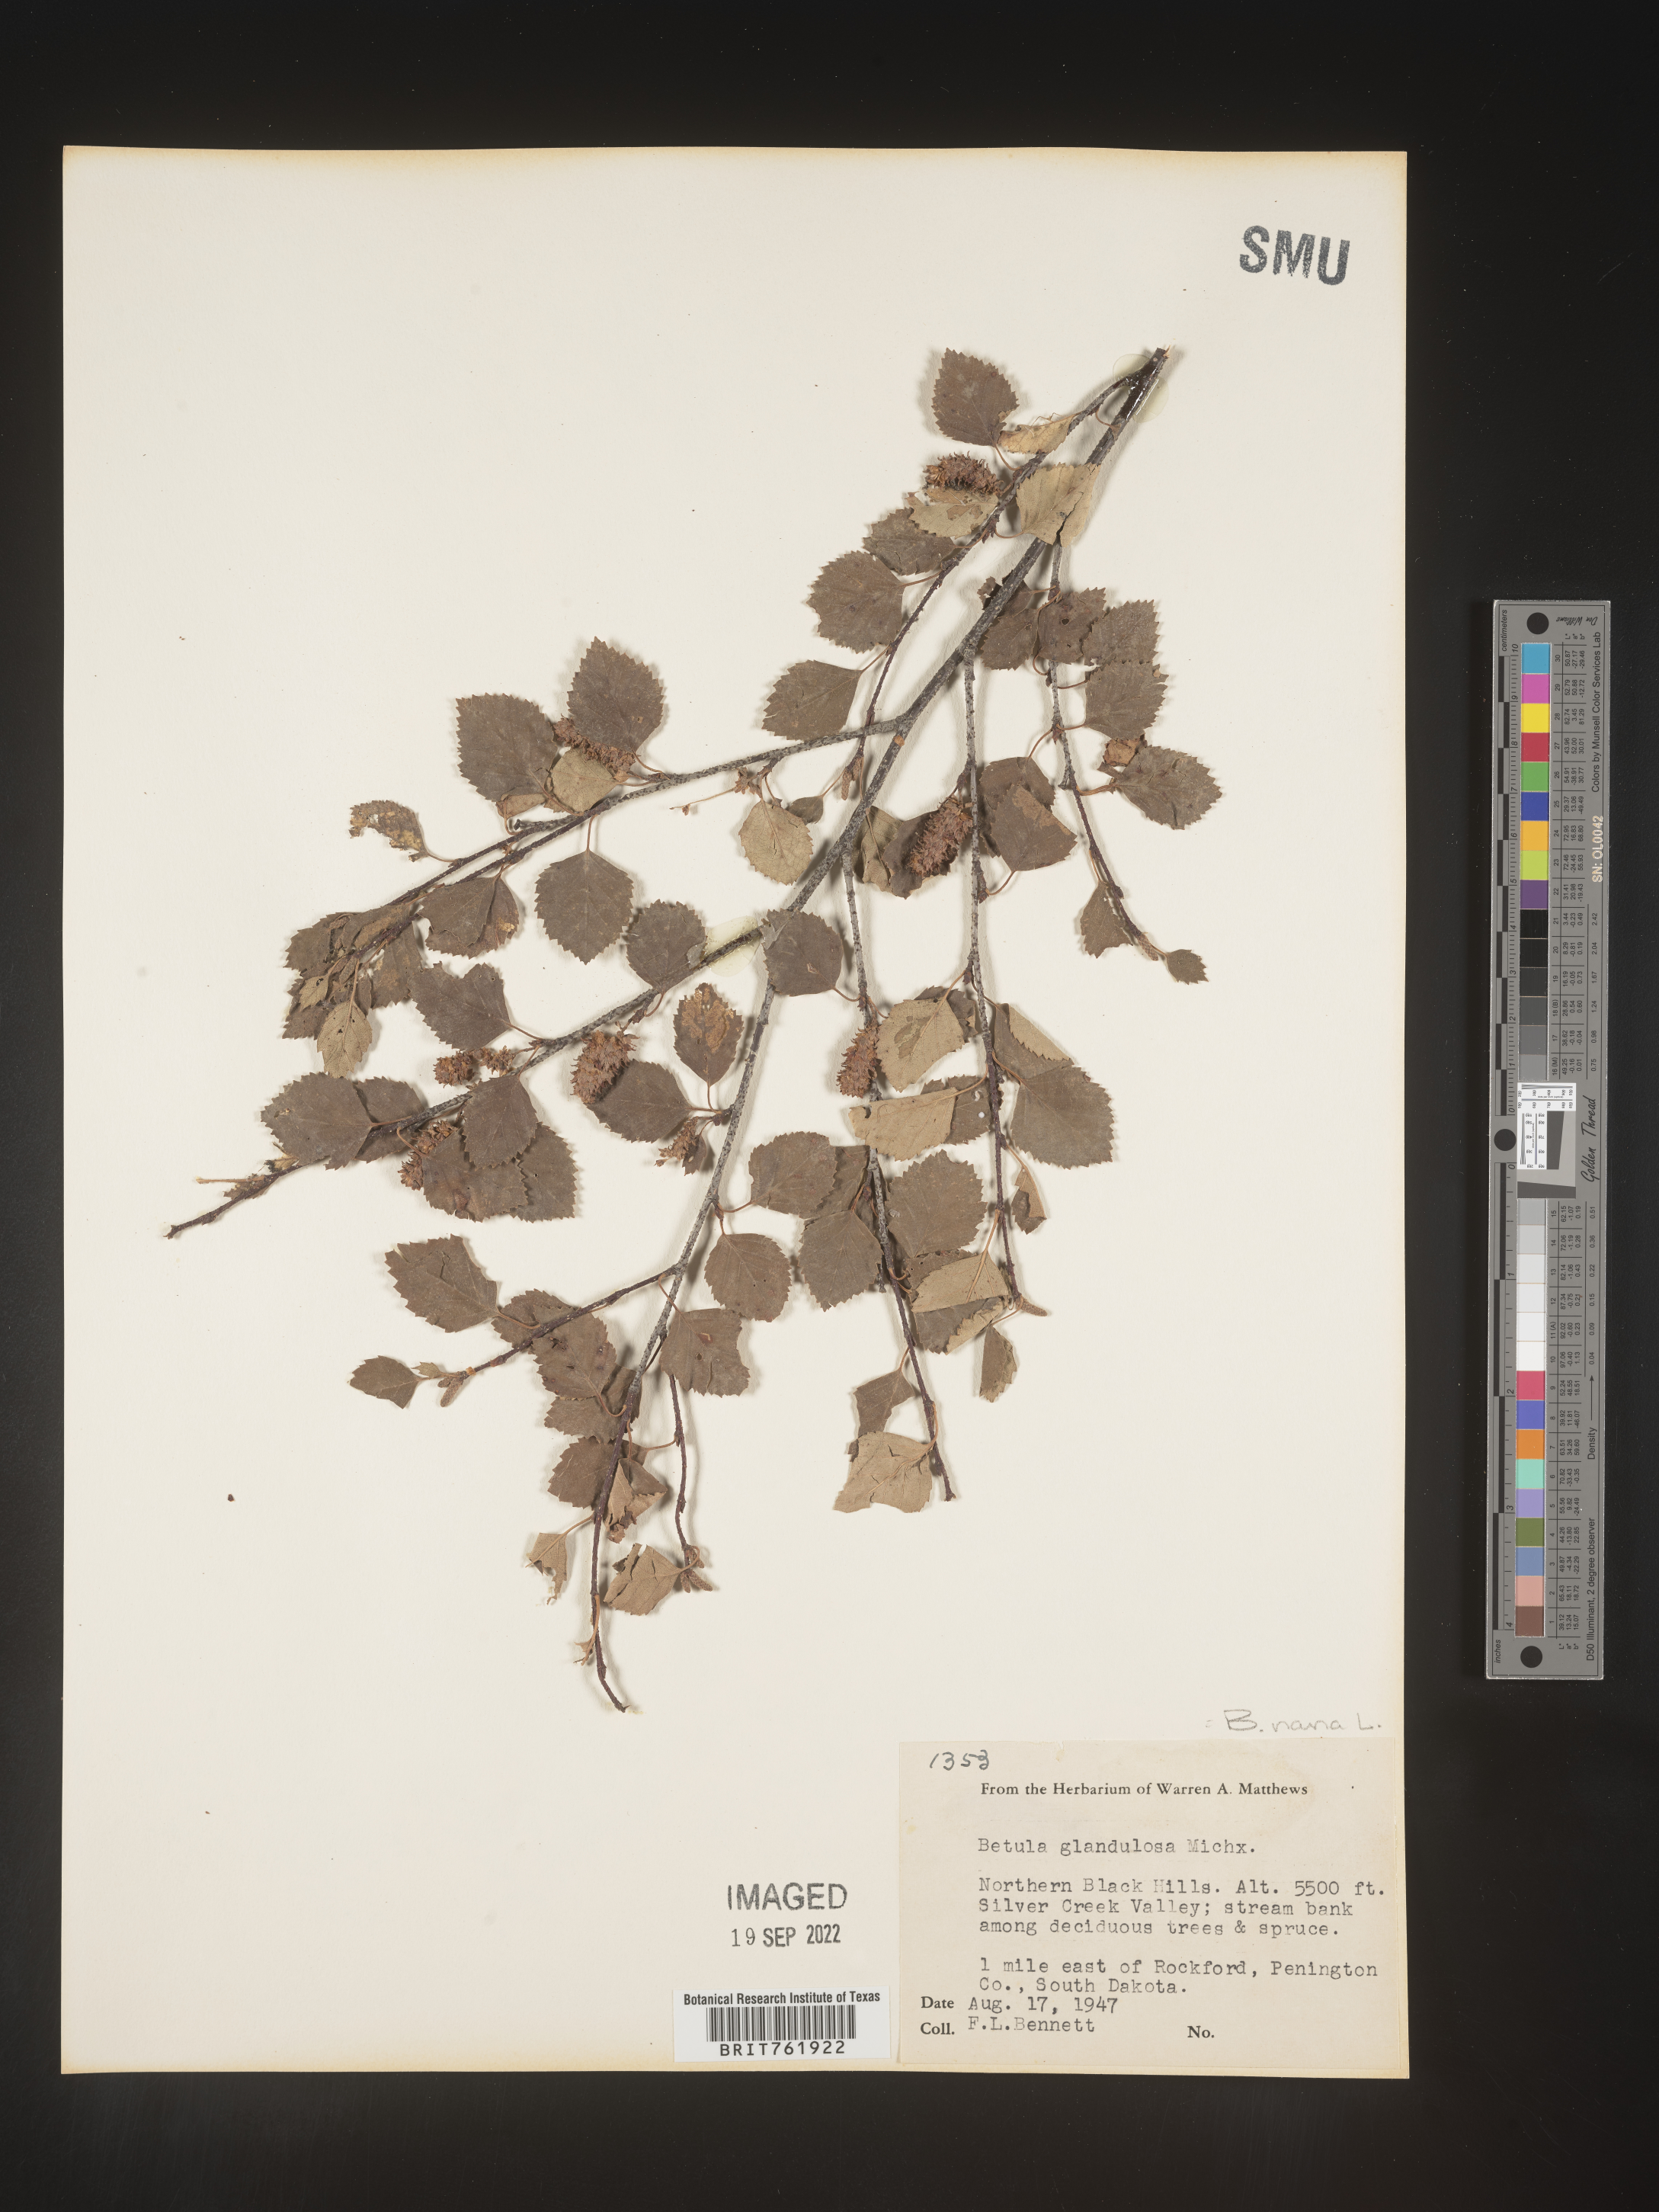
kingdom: Plantae
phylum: Tracheophyta
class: Magnoliopsida
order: Fagales
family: Betulaceae
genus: Betula
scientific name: Betula nana
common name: Arctic dwarf birch
